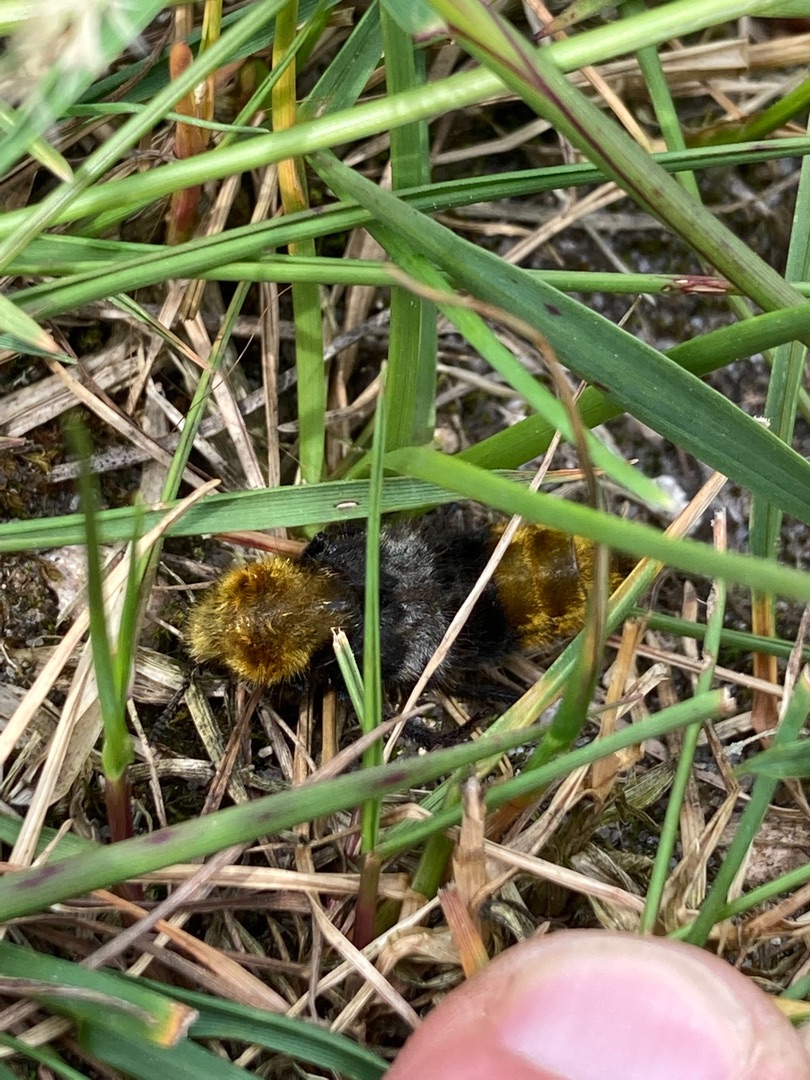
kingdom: Animalia
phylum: Arthropoda
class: Insecta
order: Coleoptera
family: Staphylinidae
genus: Emus
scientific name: Emus hirtus
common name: Humlerovbille
